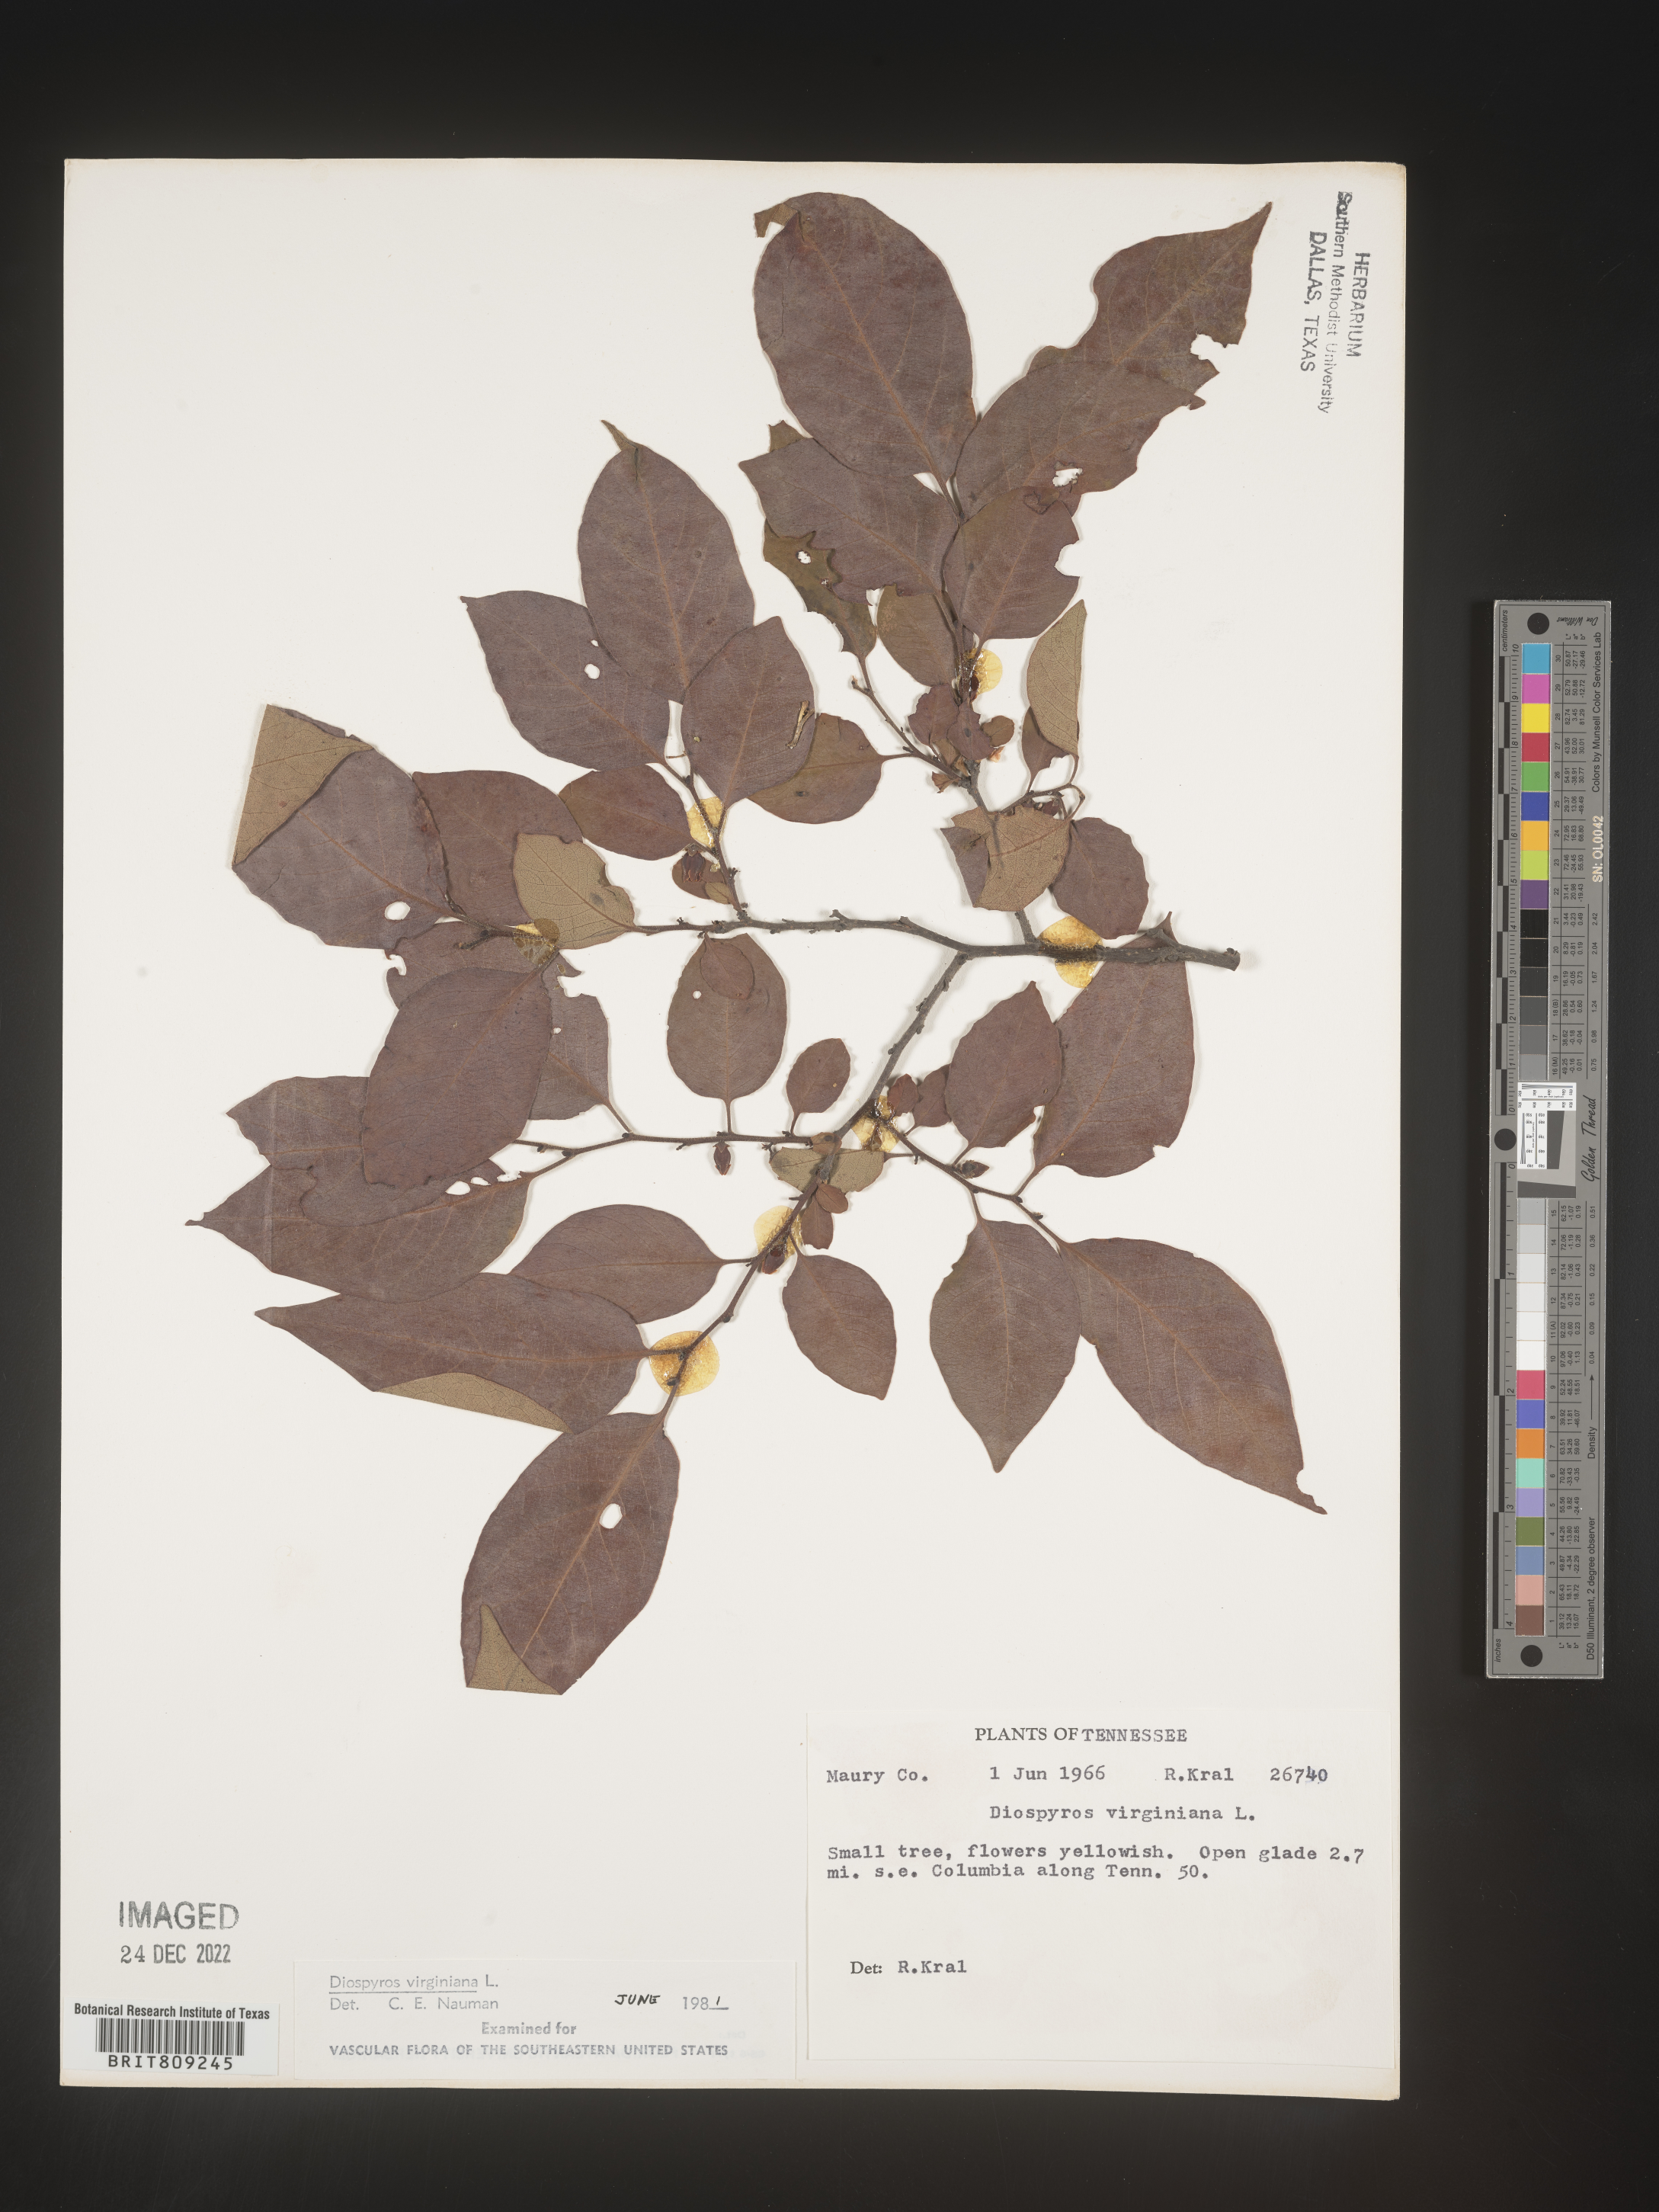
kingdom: Plantae
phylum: Tracheophyta
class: Magnoliopsida
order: Ericales
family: Ebenaceae
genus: Diospyros
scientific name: Diospyros virginiana
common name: Persimmon
